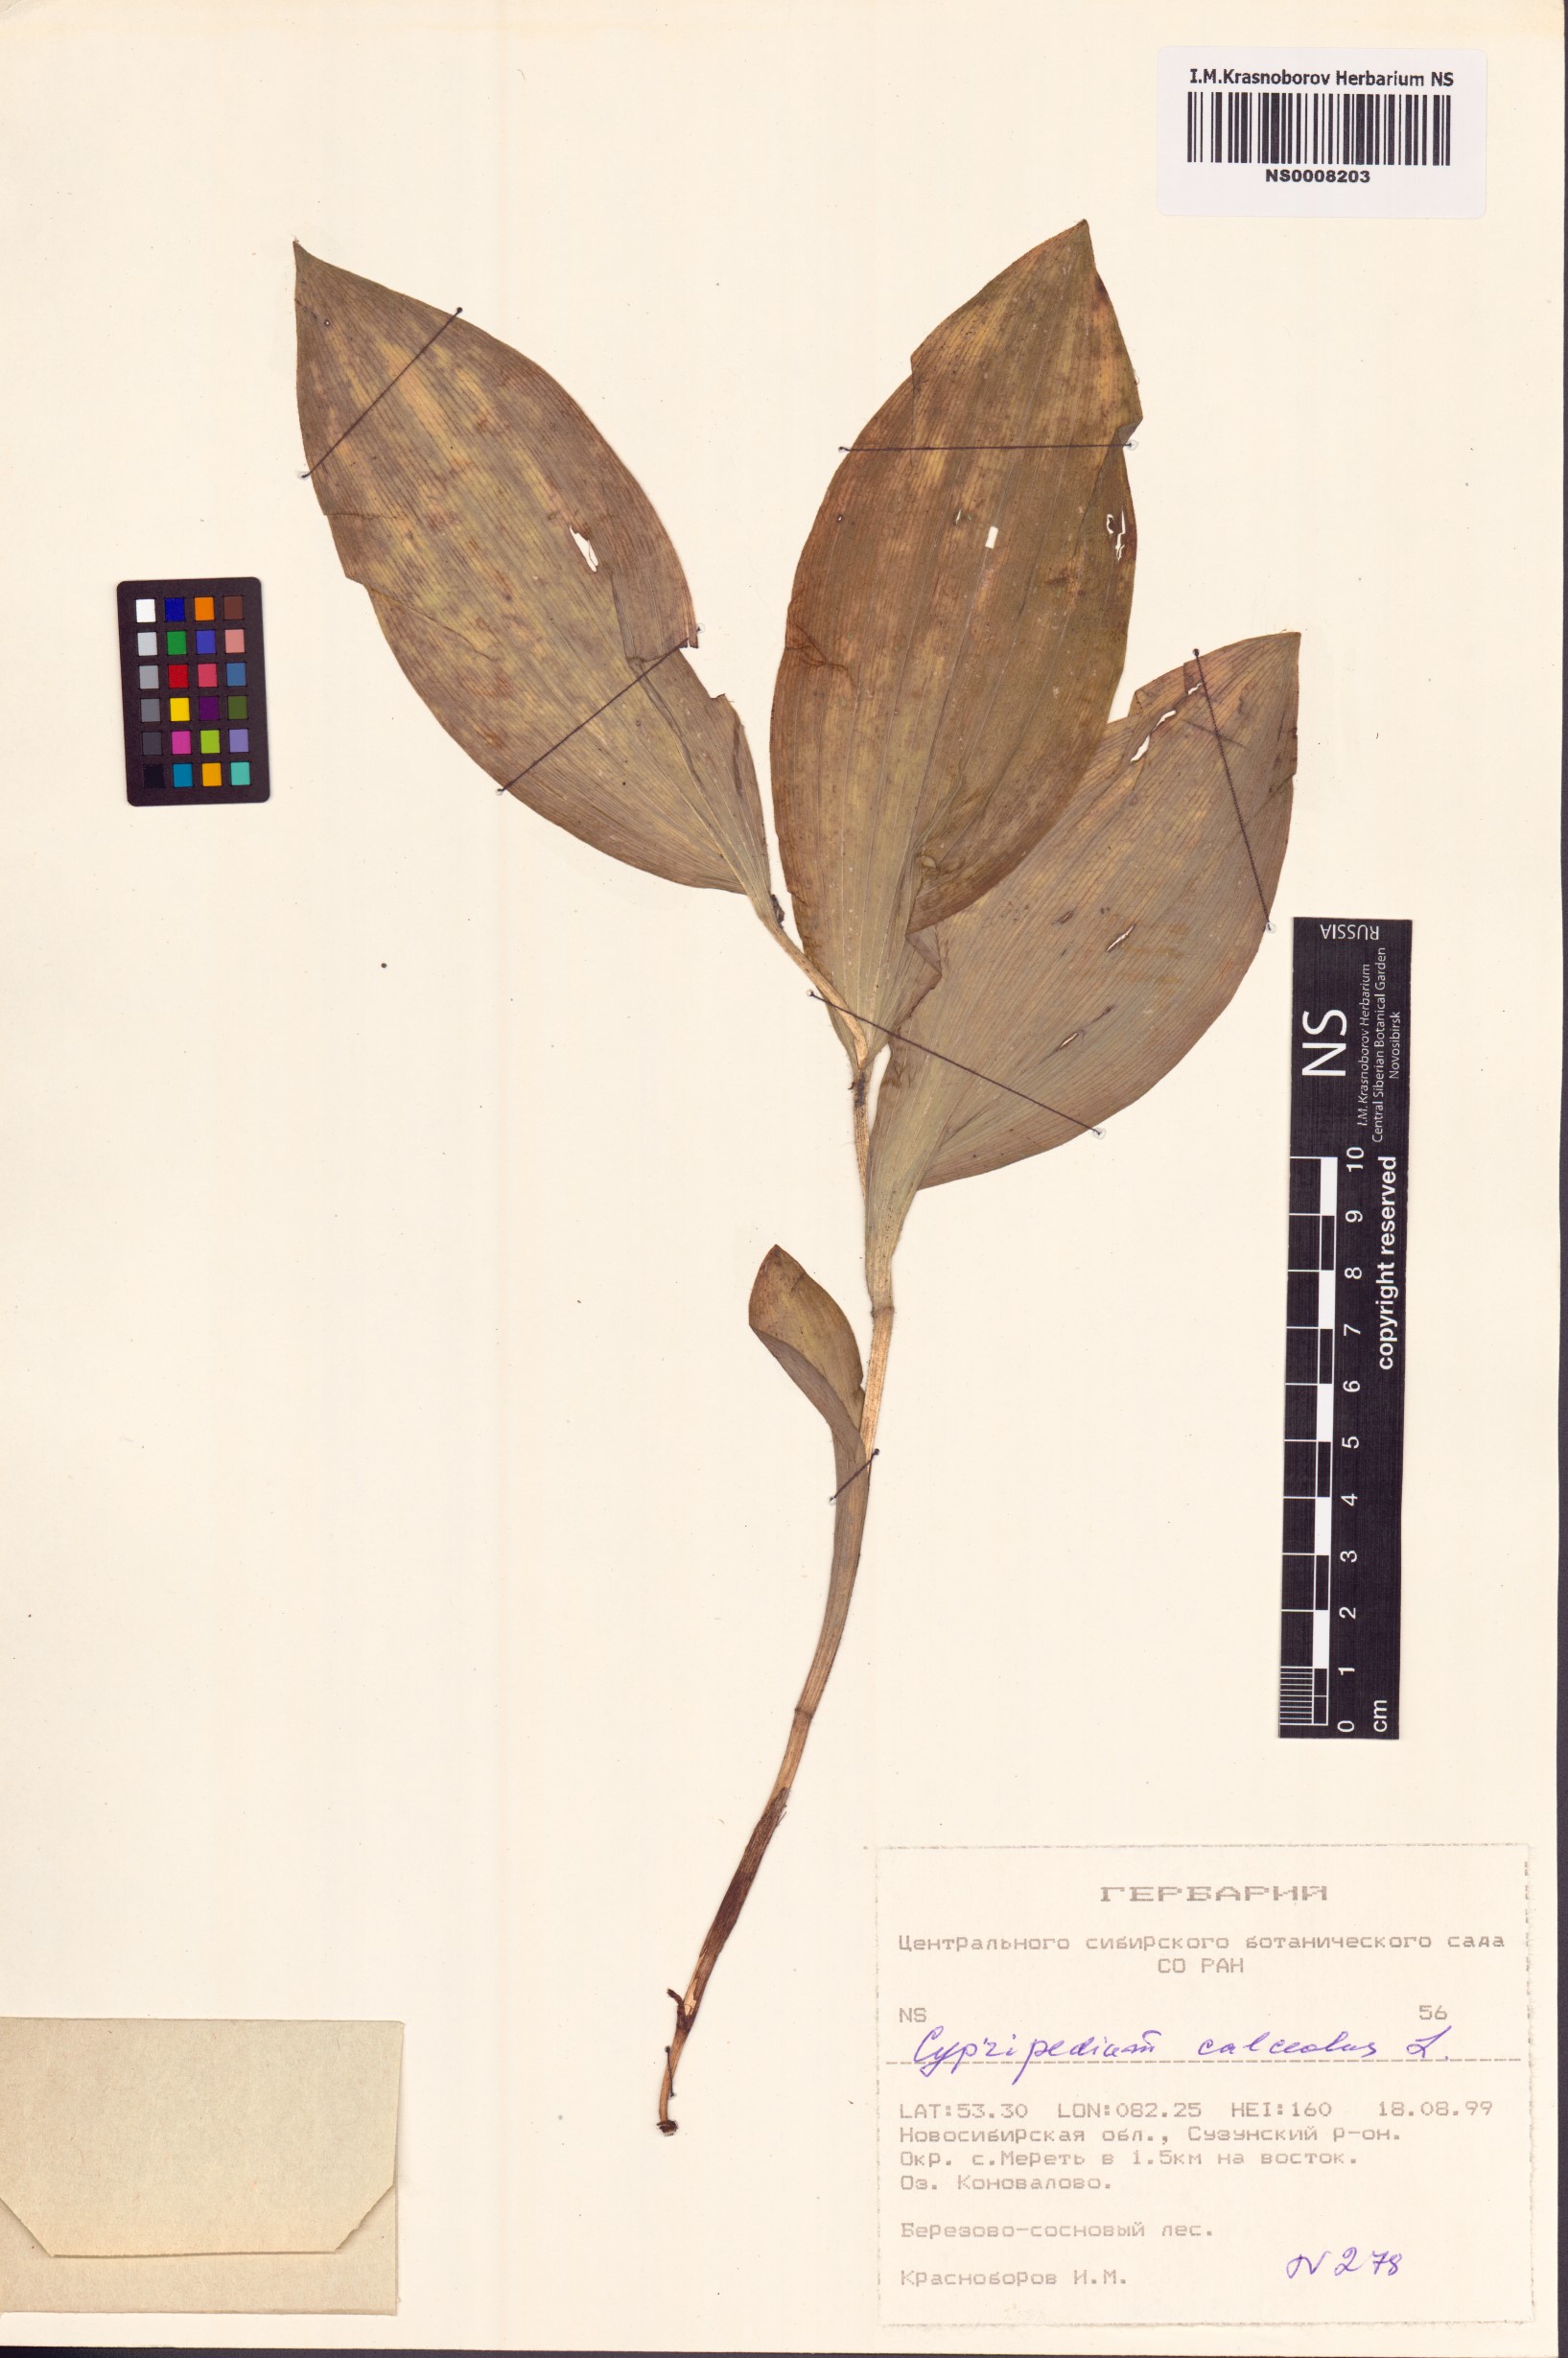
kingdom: Plantae
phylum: Tracheophyta
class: Liliopsida
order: Asparagales
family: Orchidaceae
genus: Cypripedium
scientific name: Cypripedium calceolus
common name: Lady's-slipper
